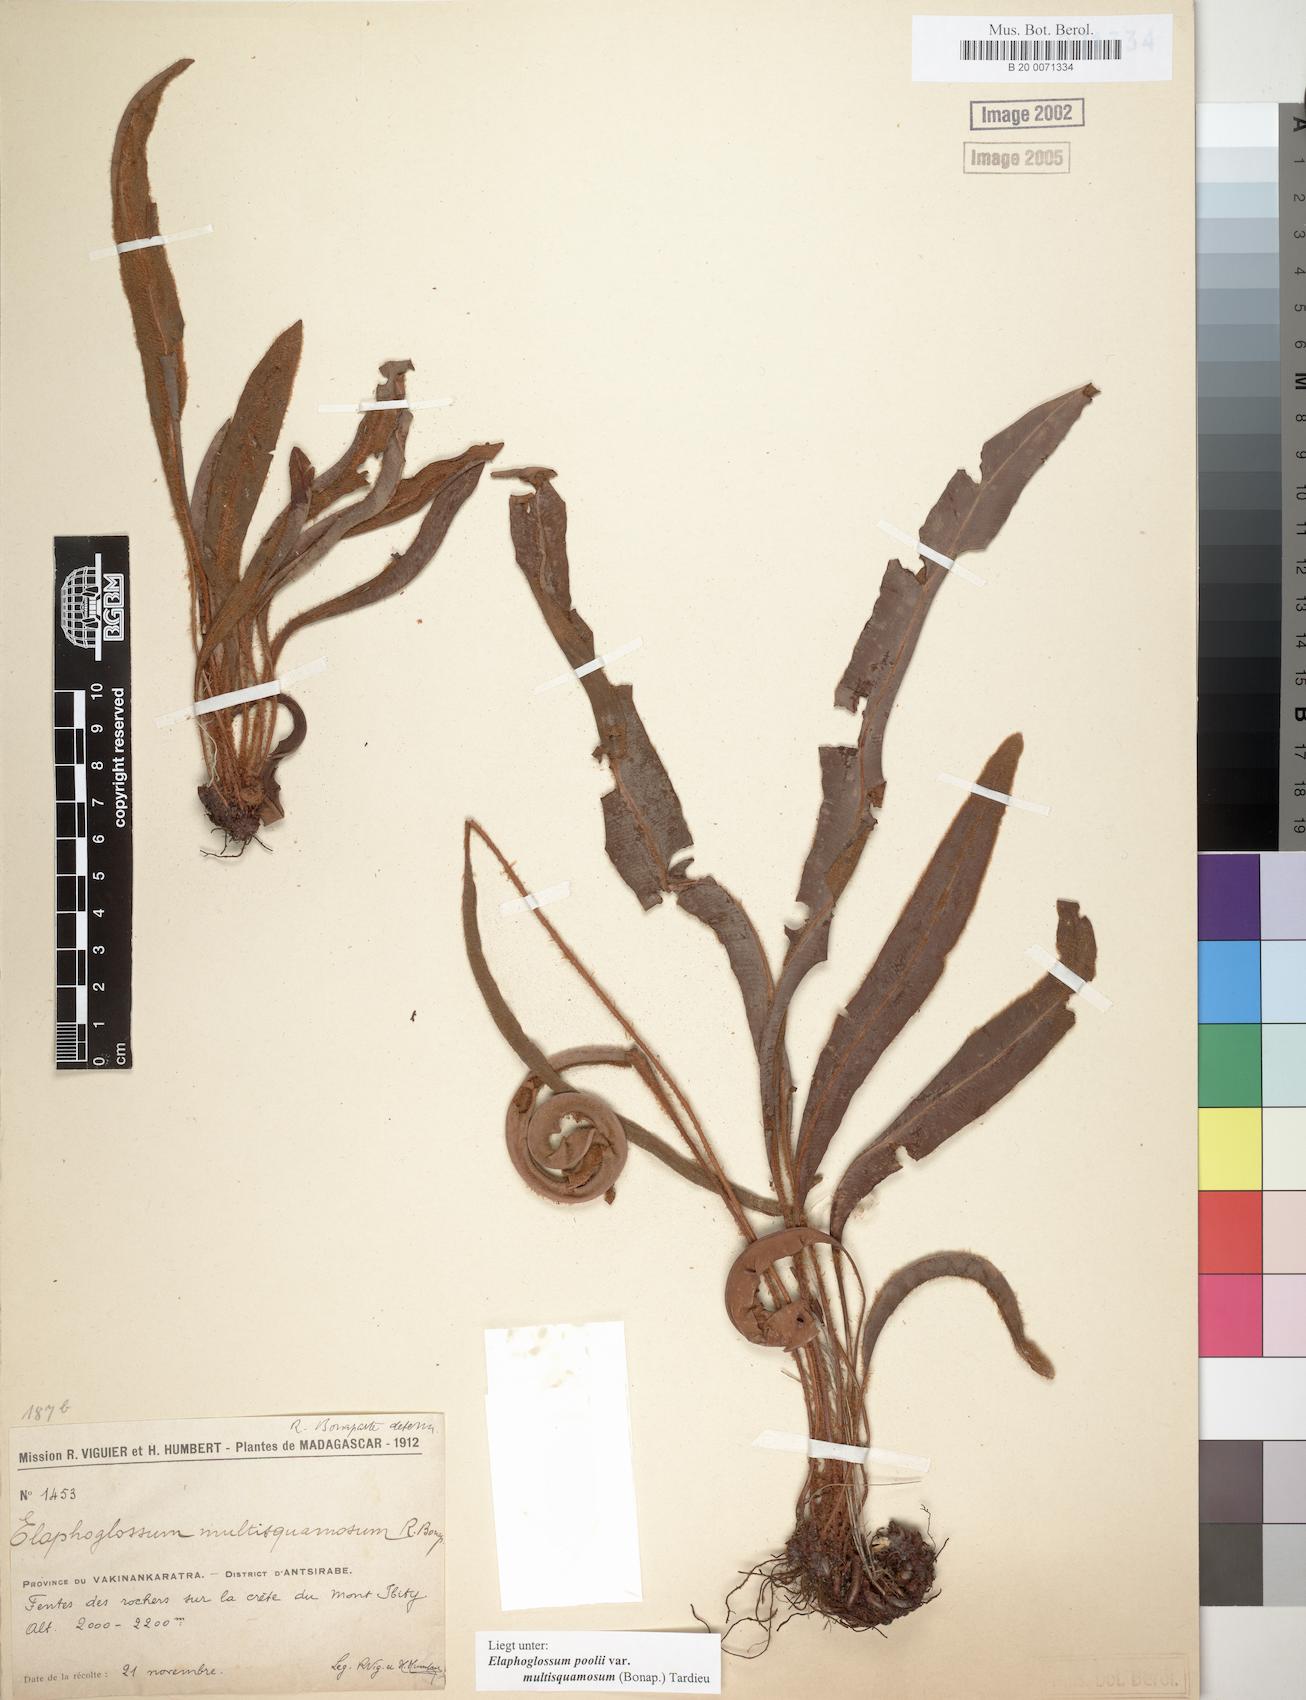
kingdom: Plantae
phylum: Tracheophyta
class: Polypodiopsida
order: Polypodiales
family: Dryopteridaceae
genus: Elaphoglossum
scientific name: Elaphoglossum poolii
